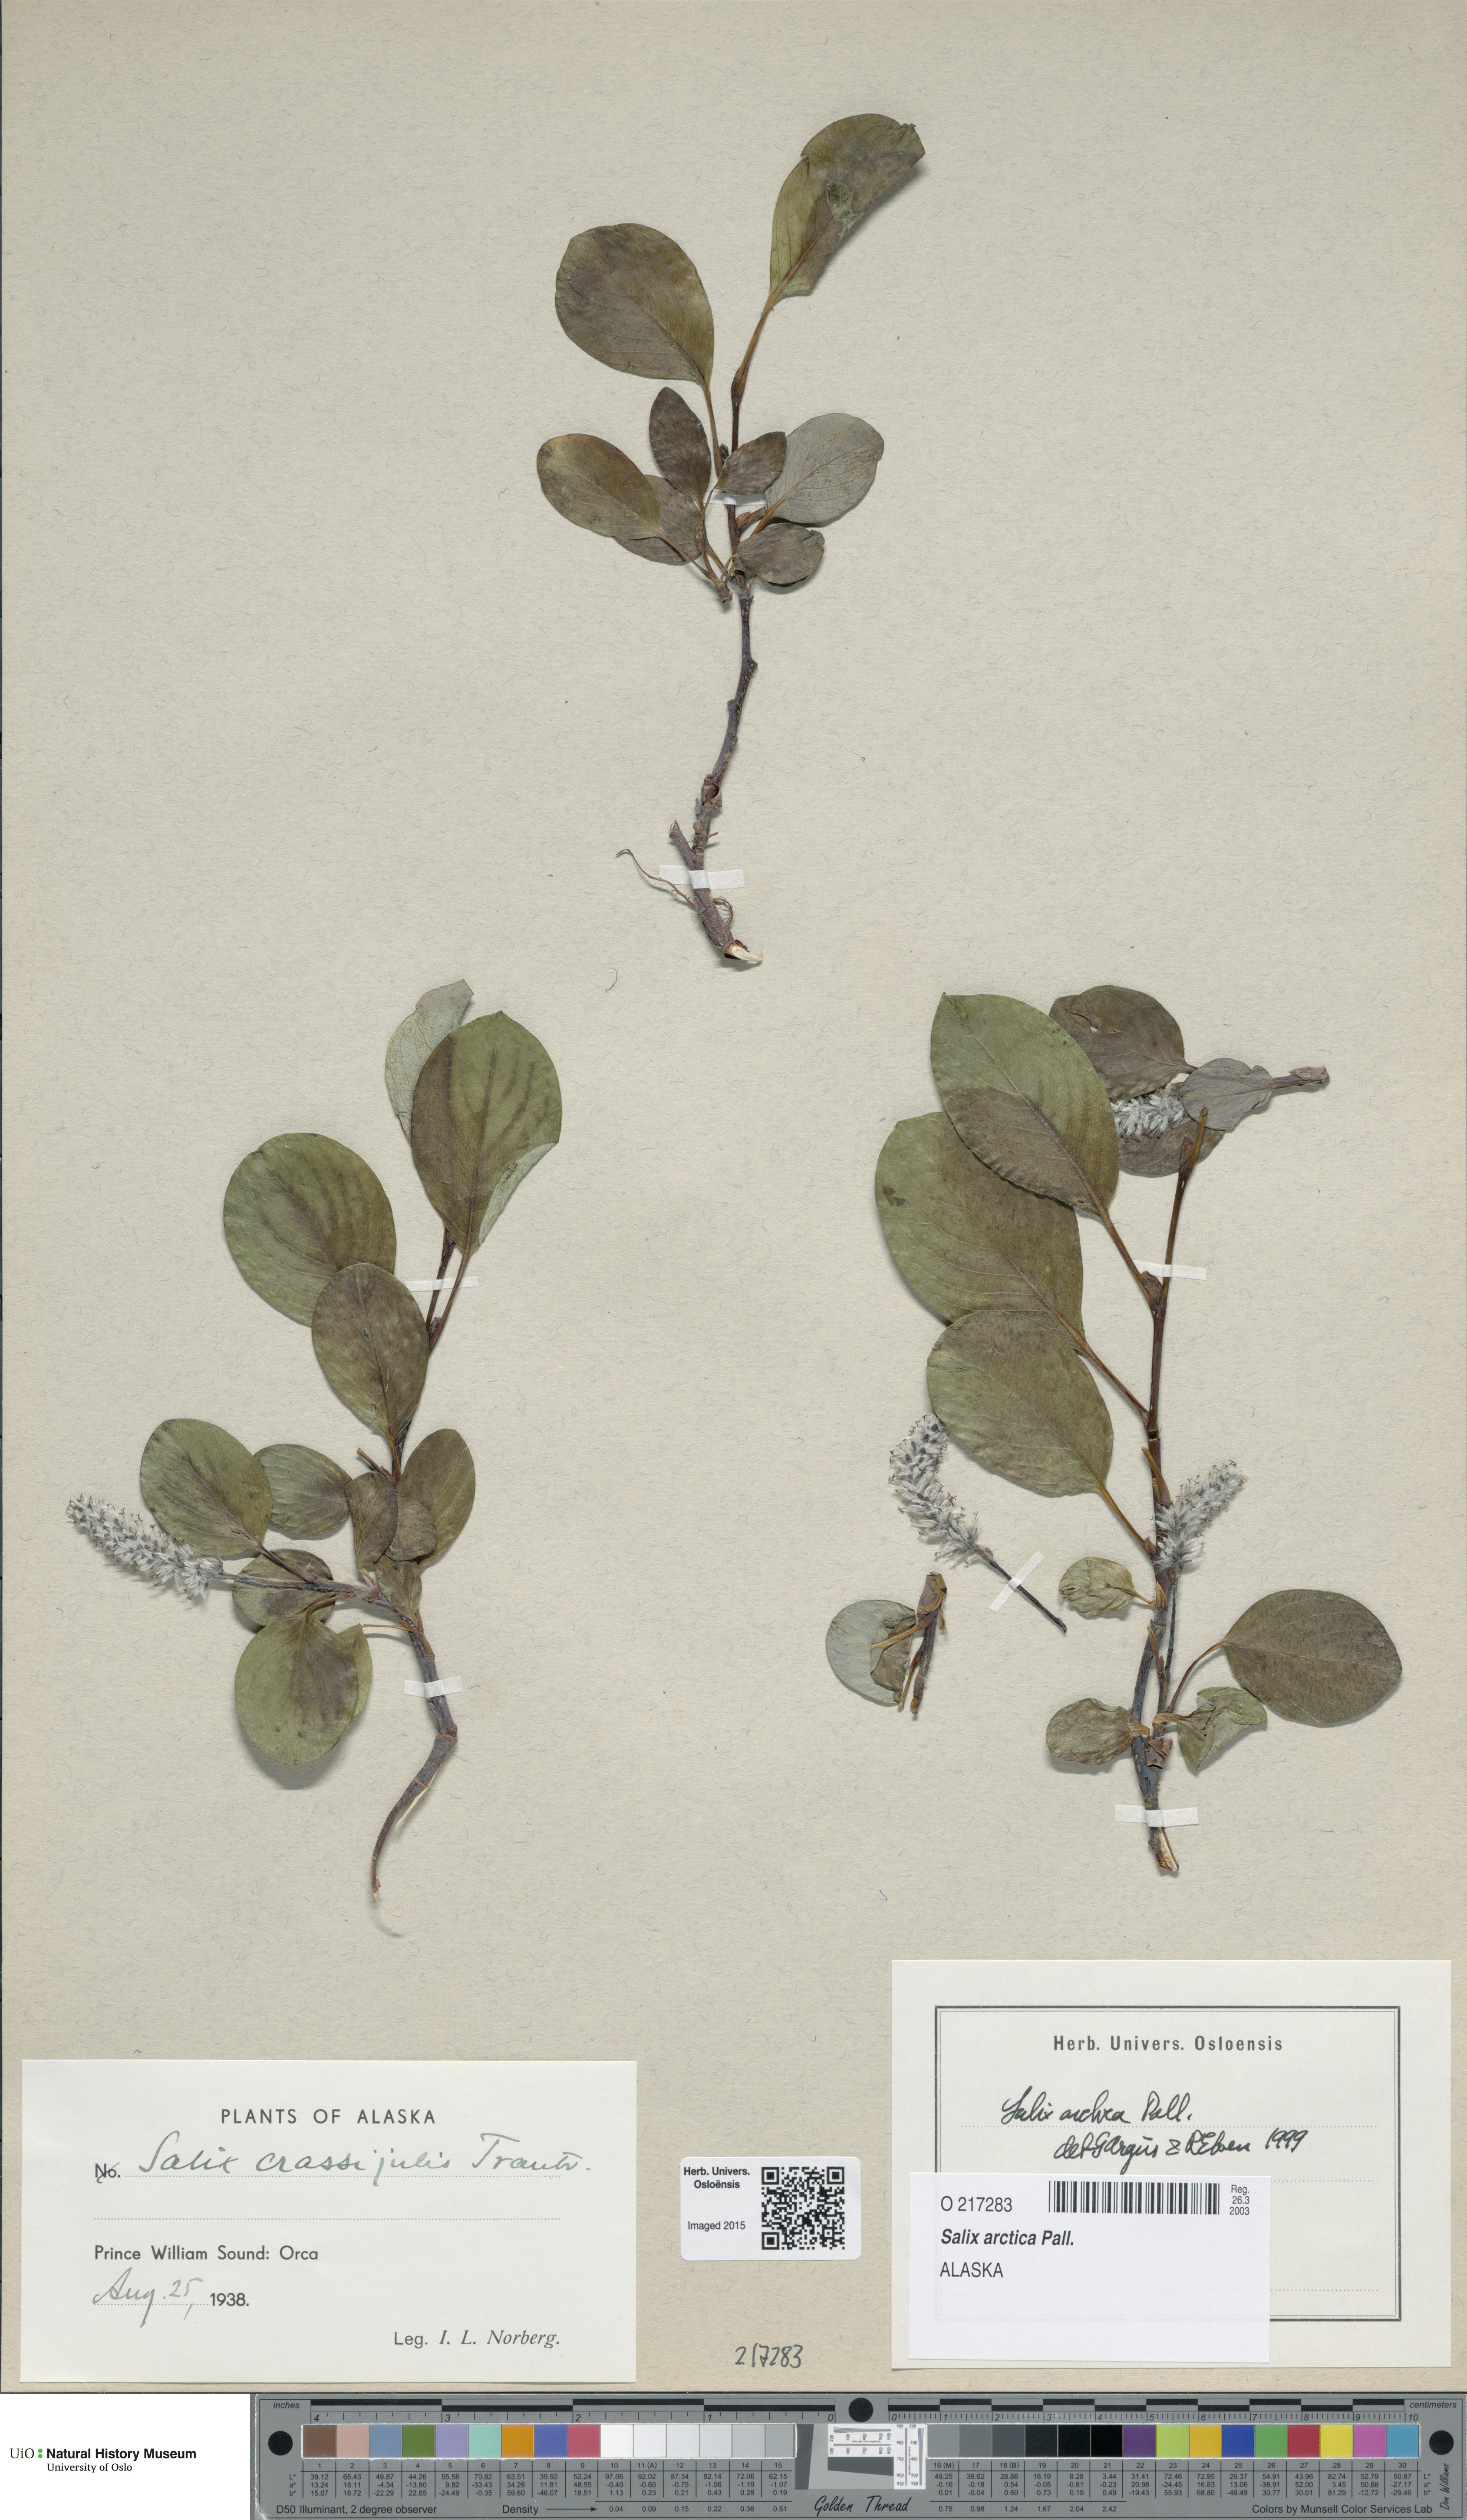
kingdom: Plantae
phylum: Tracheophyta
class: Magnoliopsida
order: Malpighiales
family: Salicaceae
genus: Salix
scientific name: Salix arctica
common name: Arctic willow
